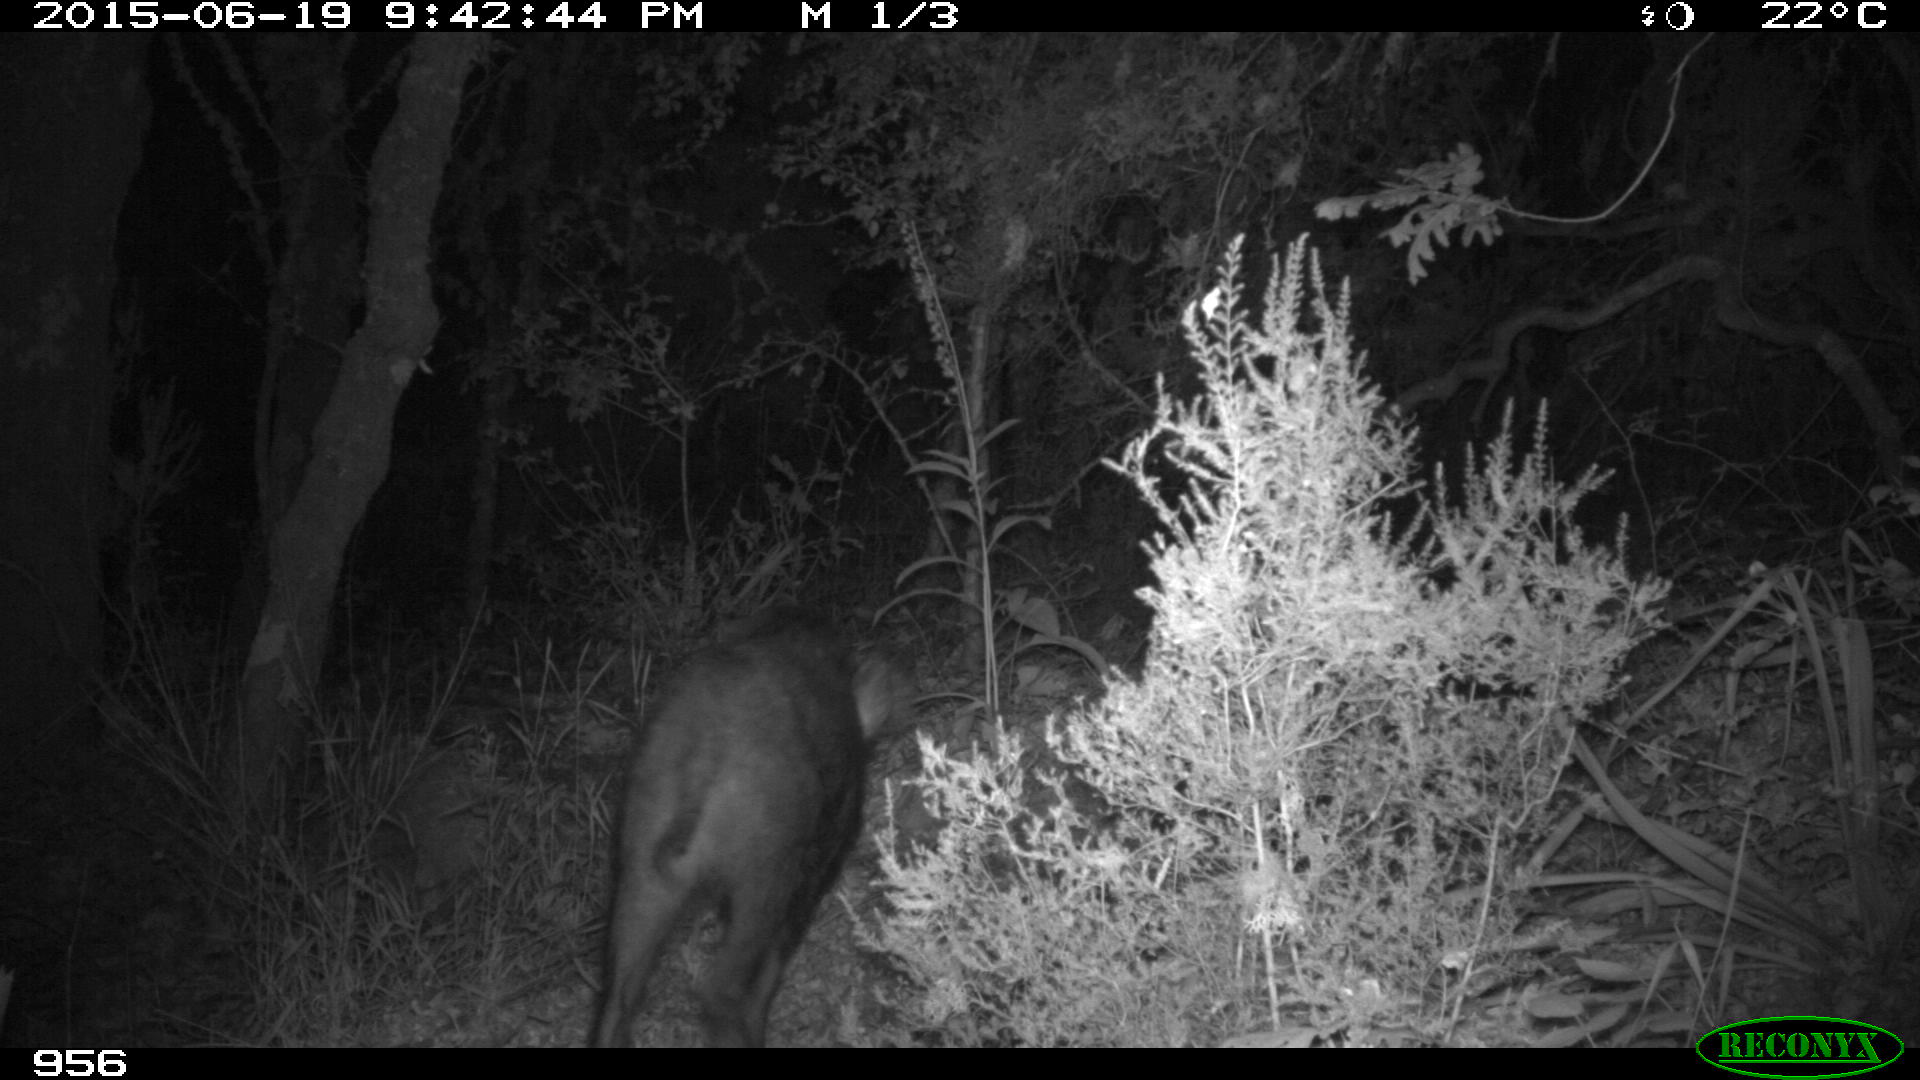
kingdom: Animalia
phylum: Chordata
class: Mammalia
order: Artiodactyla
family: Suidae
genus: Sus
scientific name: Sus scrofa
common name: Wild boar
